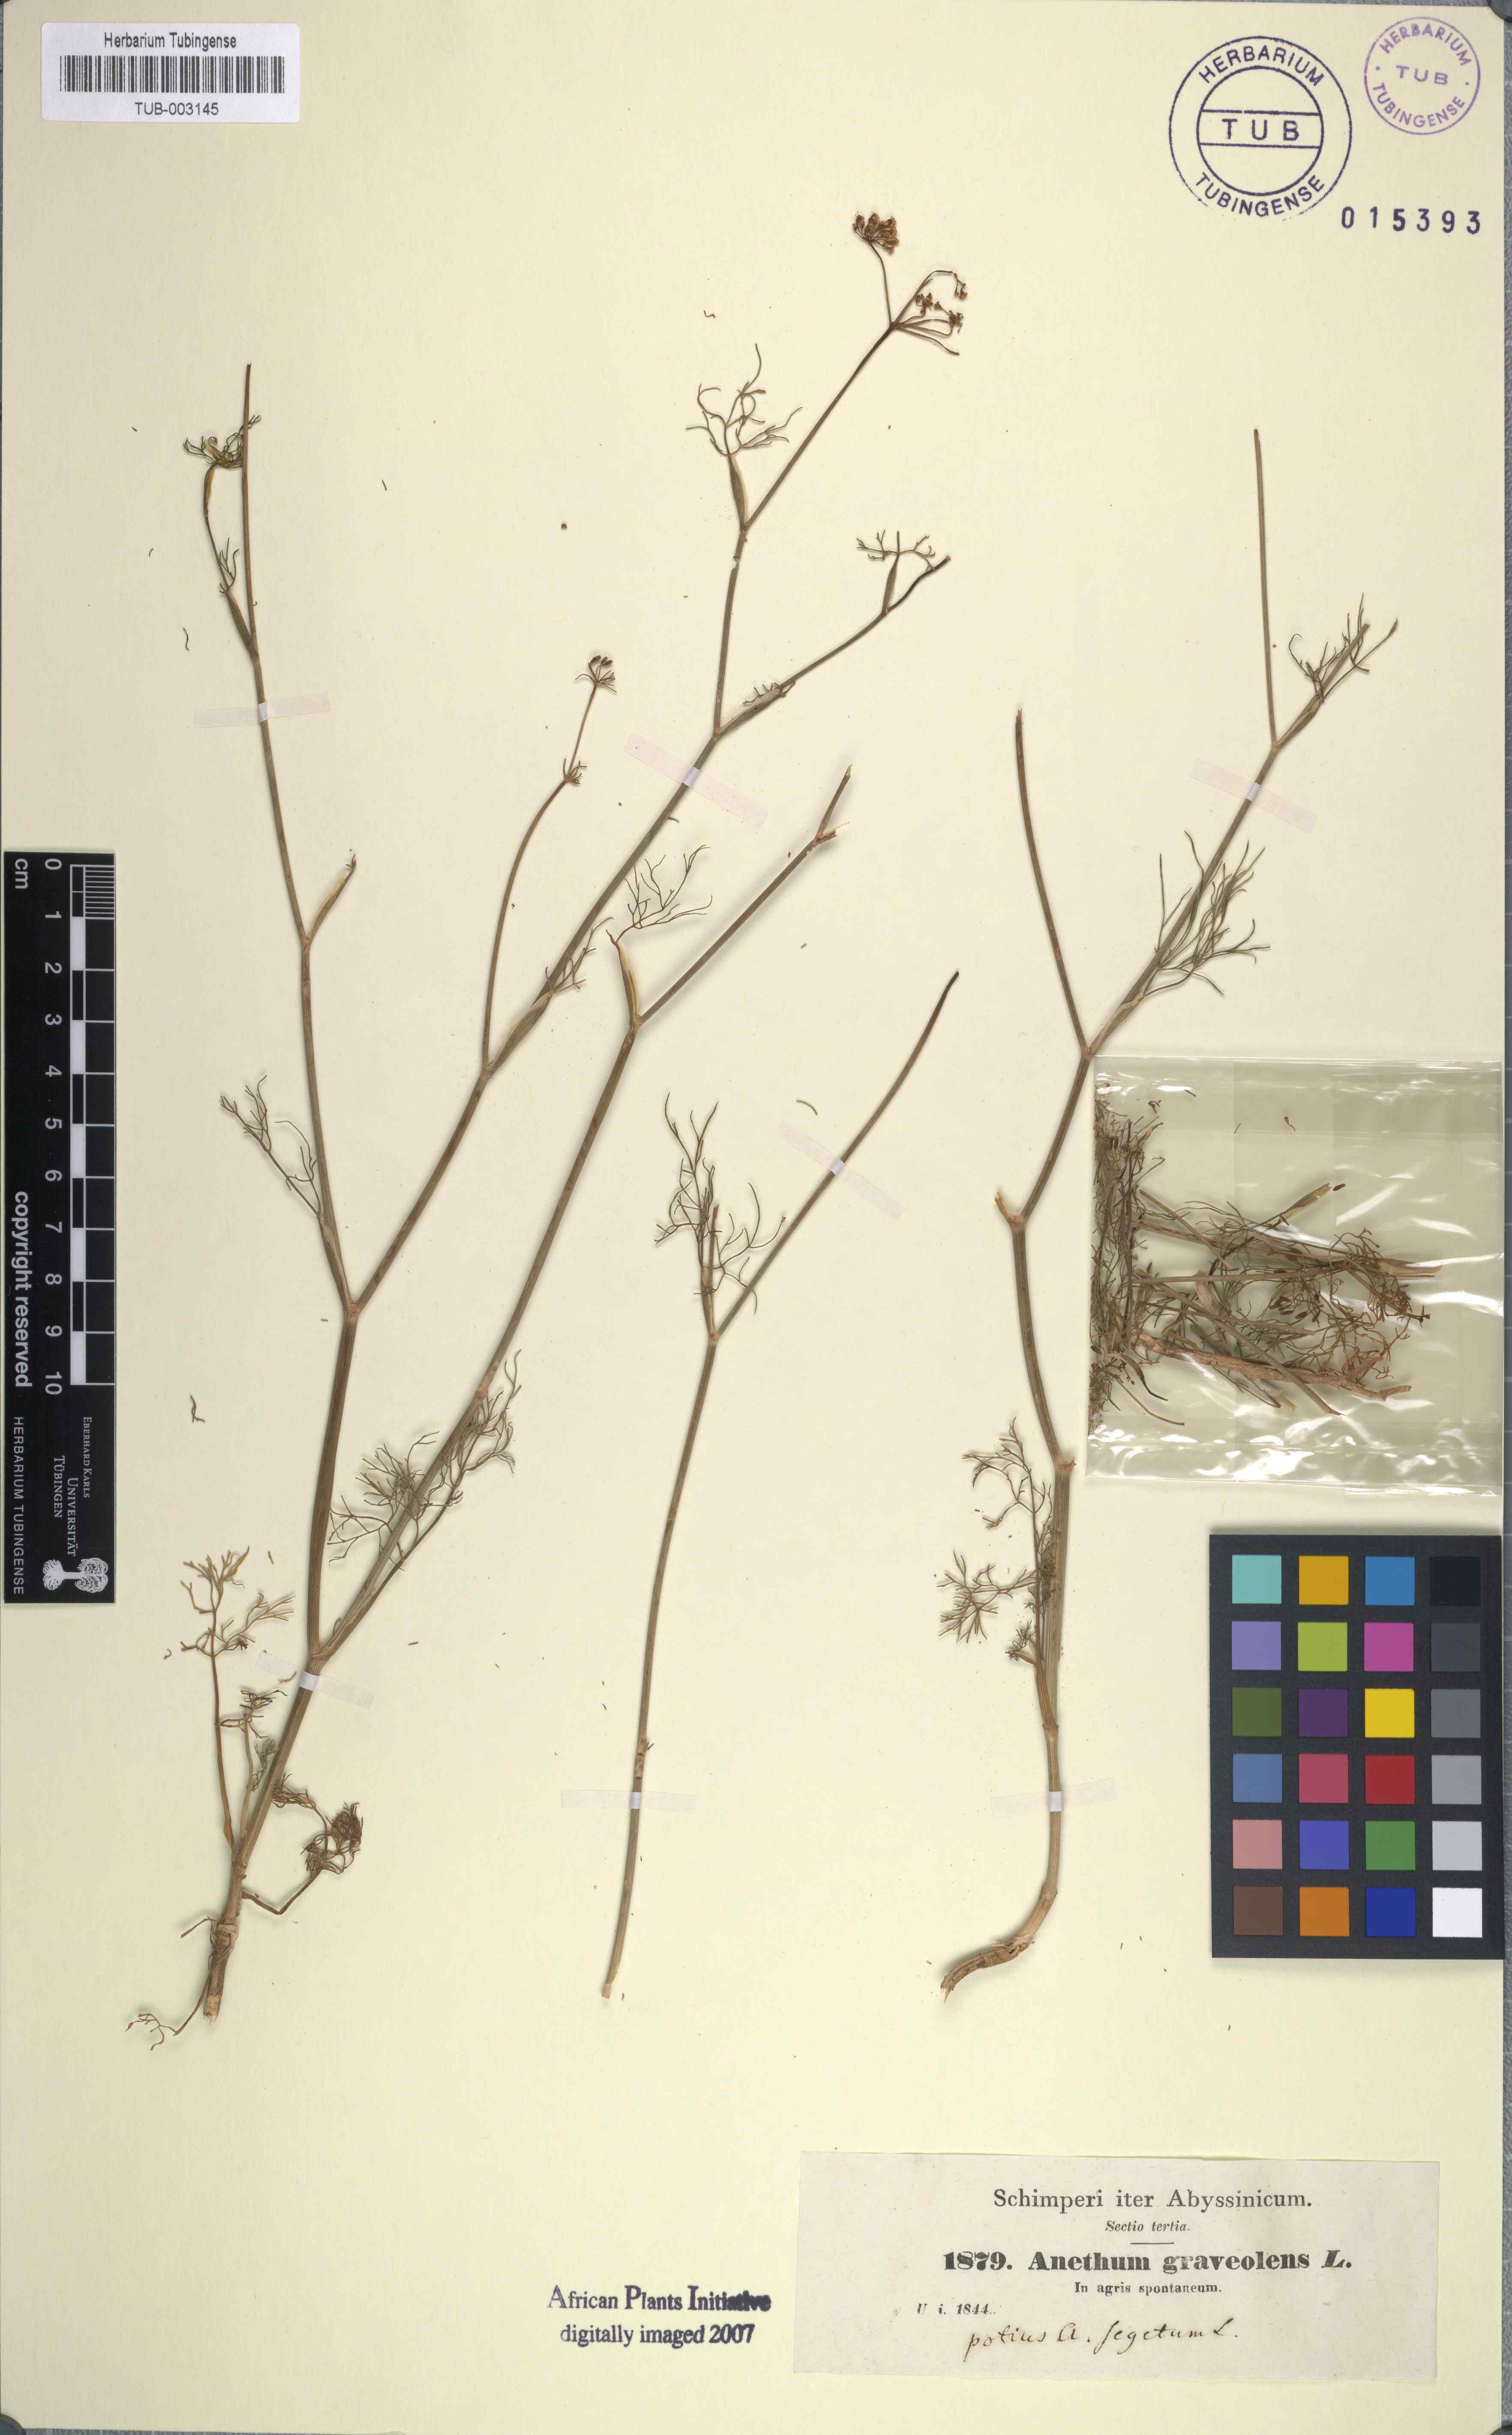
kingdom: Plantae
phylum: Tracheophyta
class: Magnoliopsida
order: Apiales
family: Apiaceae
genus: Anethum
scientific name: Anethum graveolens
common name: Dill
